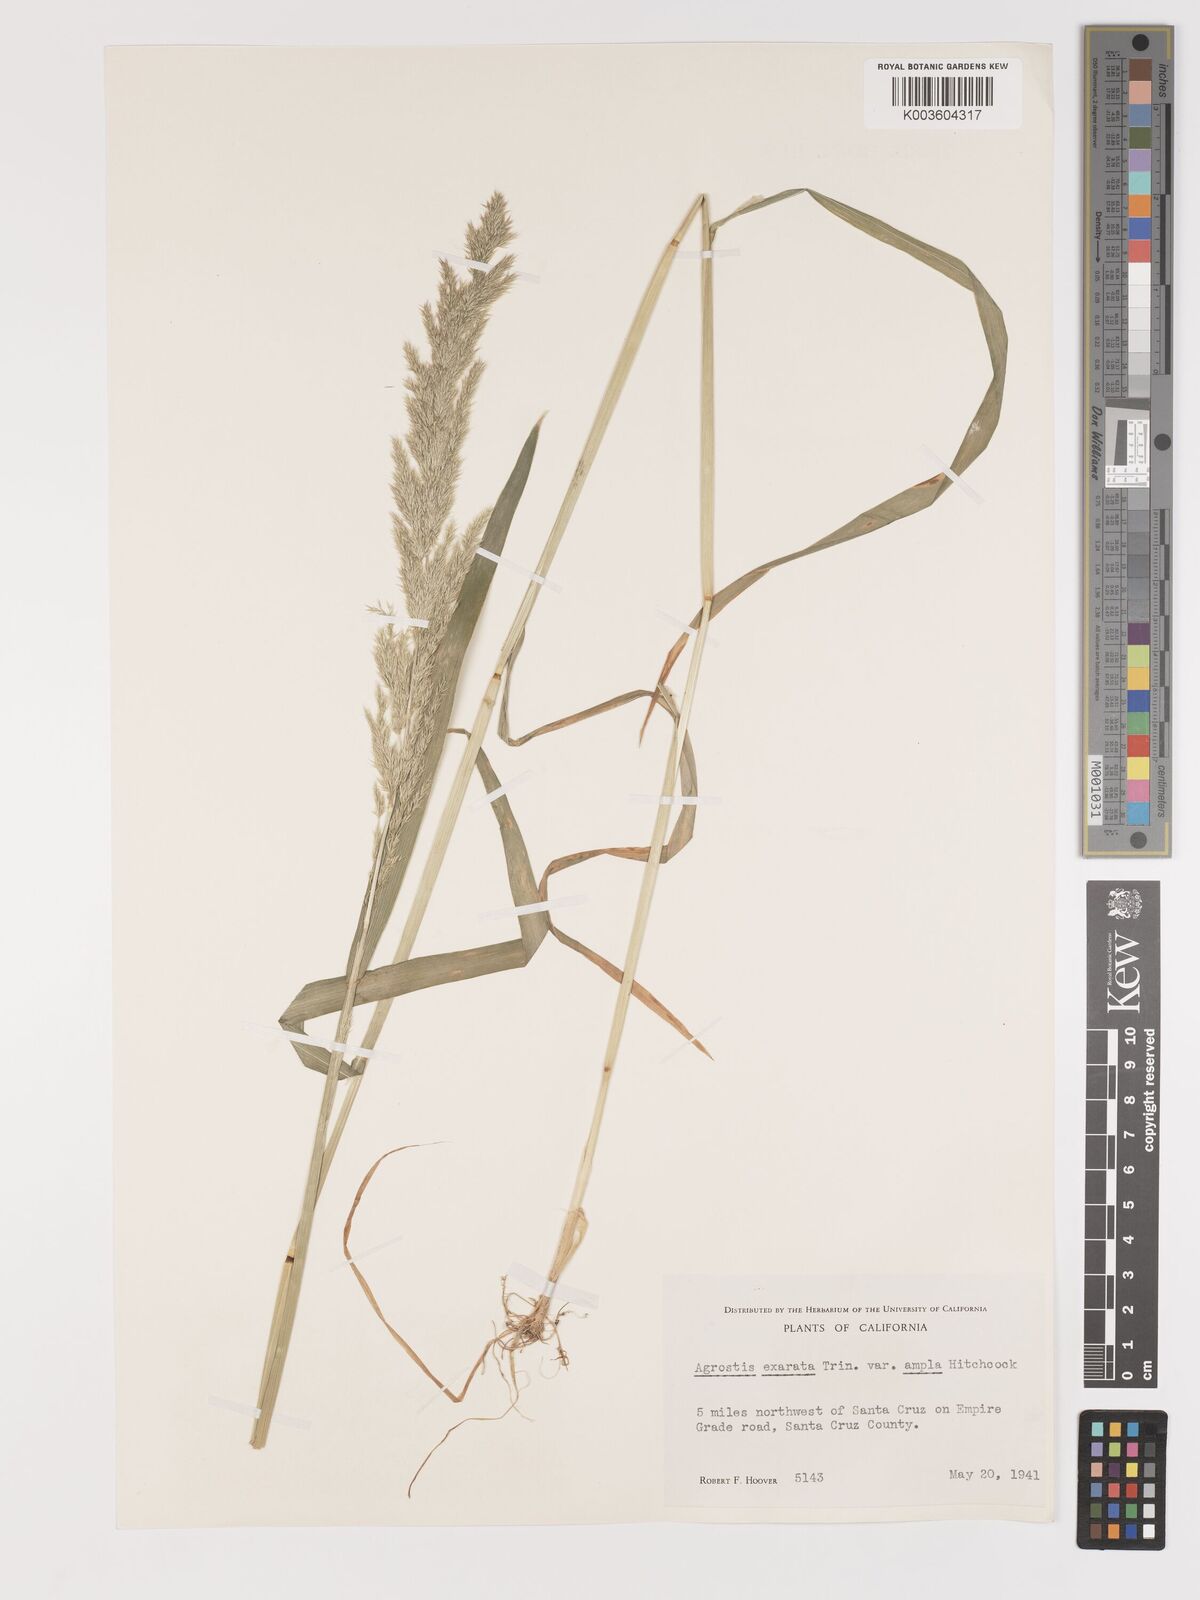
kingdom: Plantae
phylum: Tracheophyta
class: Liliopsida
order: Poales
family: Poaceae
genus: Agrostis
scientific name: Agrostis exarata
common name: Spike bent
